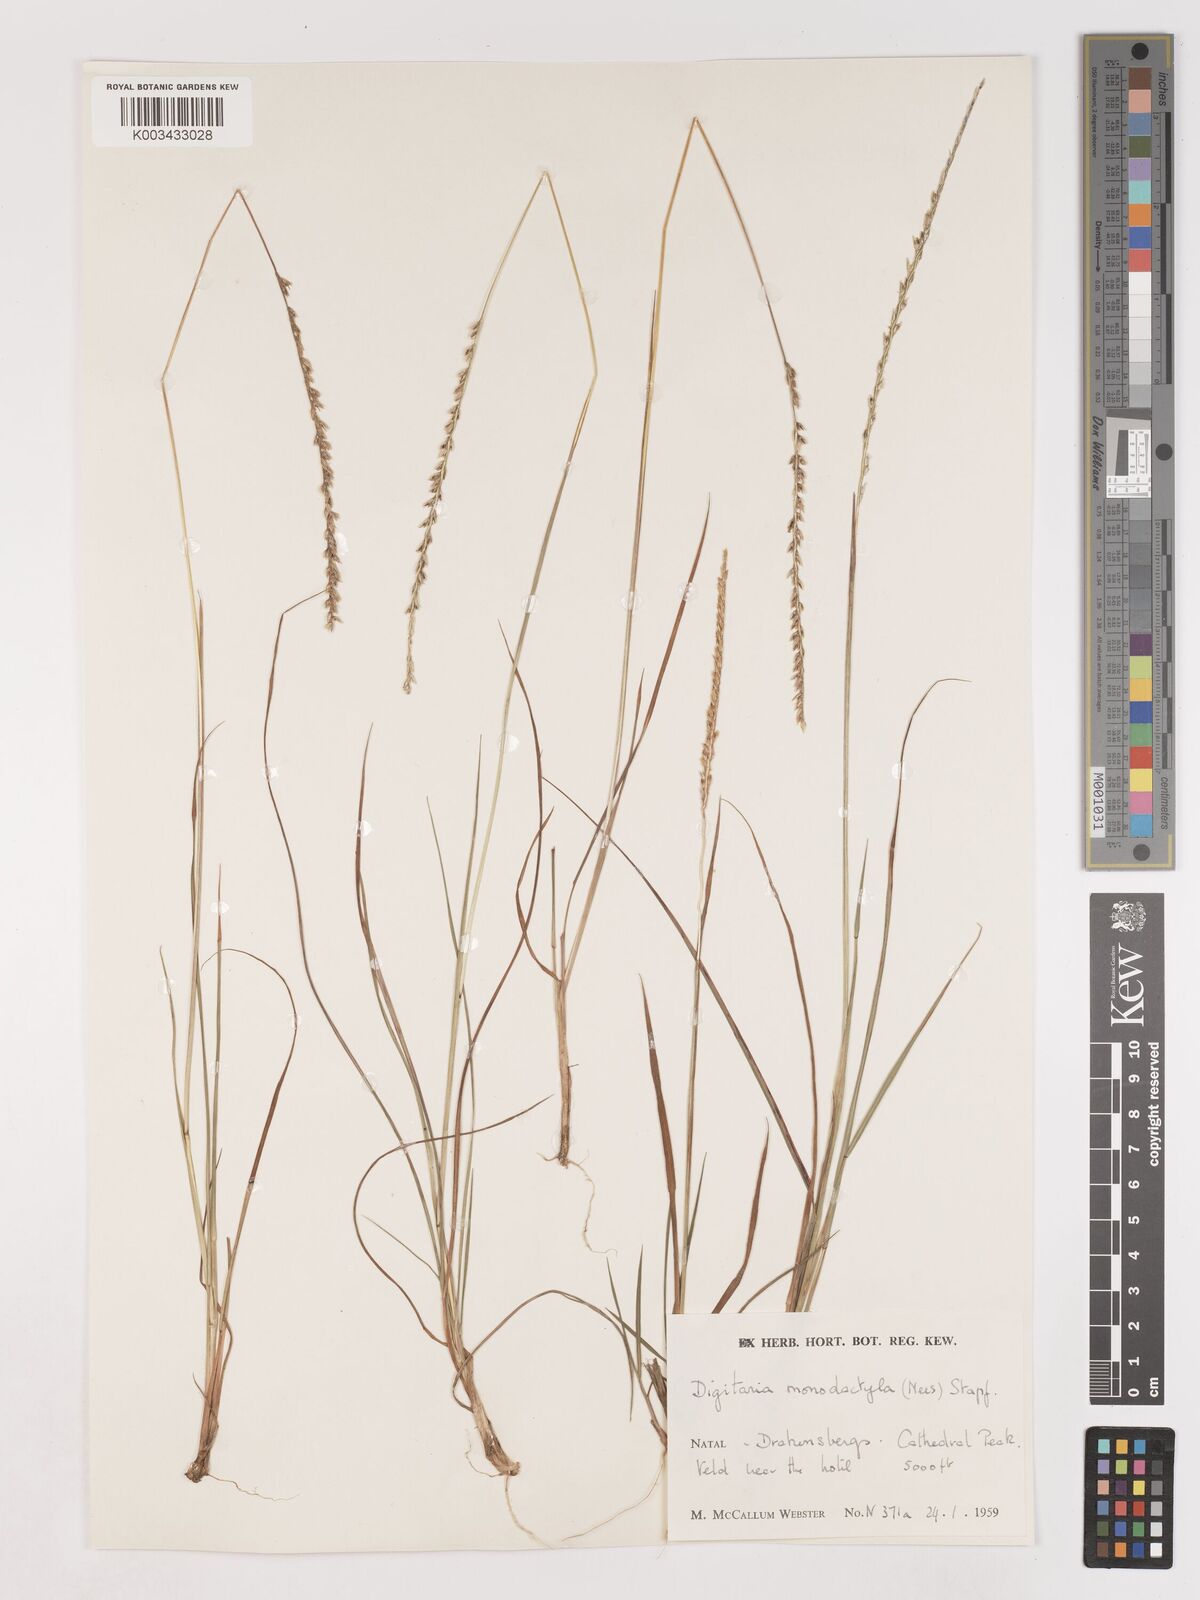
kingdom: Plantae
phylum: Tracheophyta
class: Liliopsida
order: Poales
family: Poaceae
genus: Digitaria
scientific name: Digitaria monodactyla
